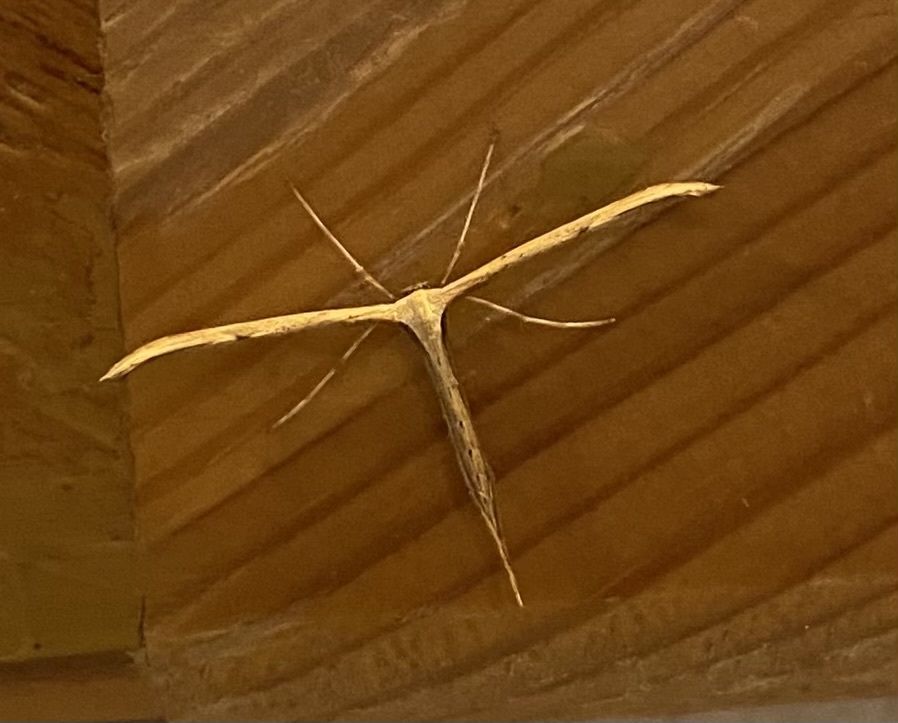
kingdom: Animalia
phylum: Arthropoda
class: Insecta
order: Lepidoptera
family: Pterophoridae
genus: Emmelina
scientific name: Emmelina monodactyla
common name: Common plume
